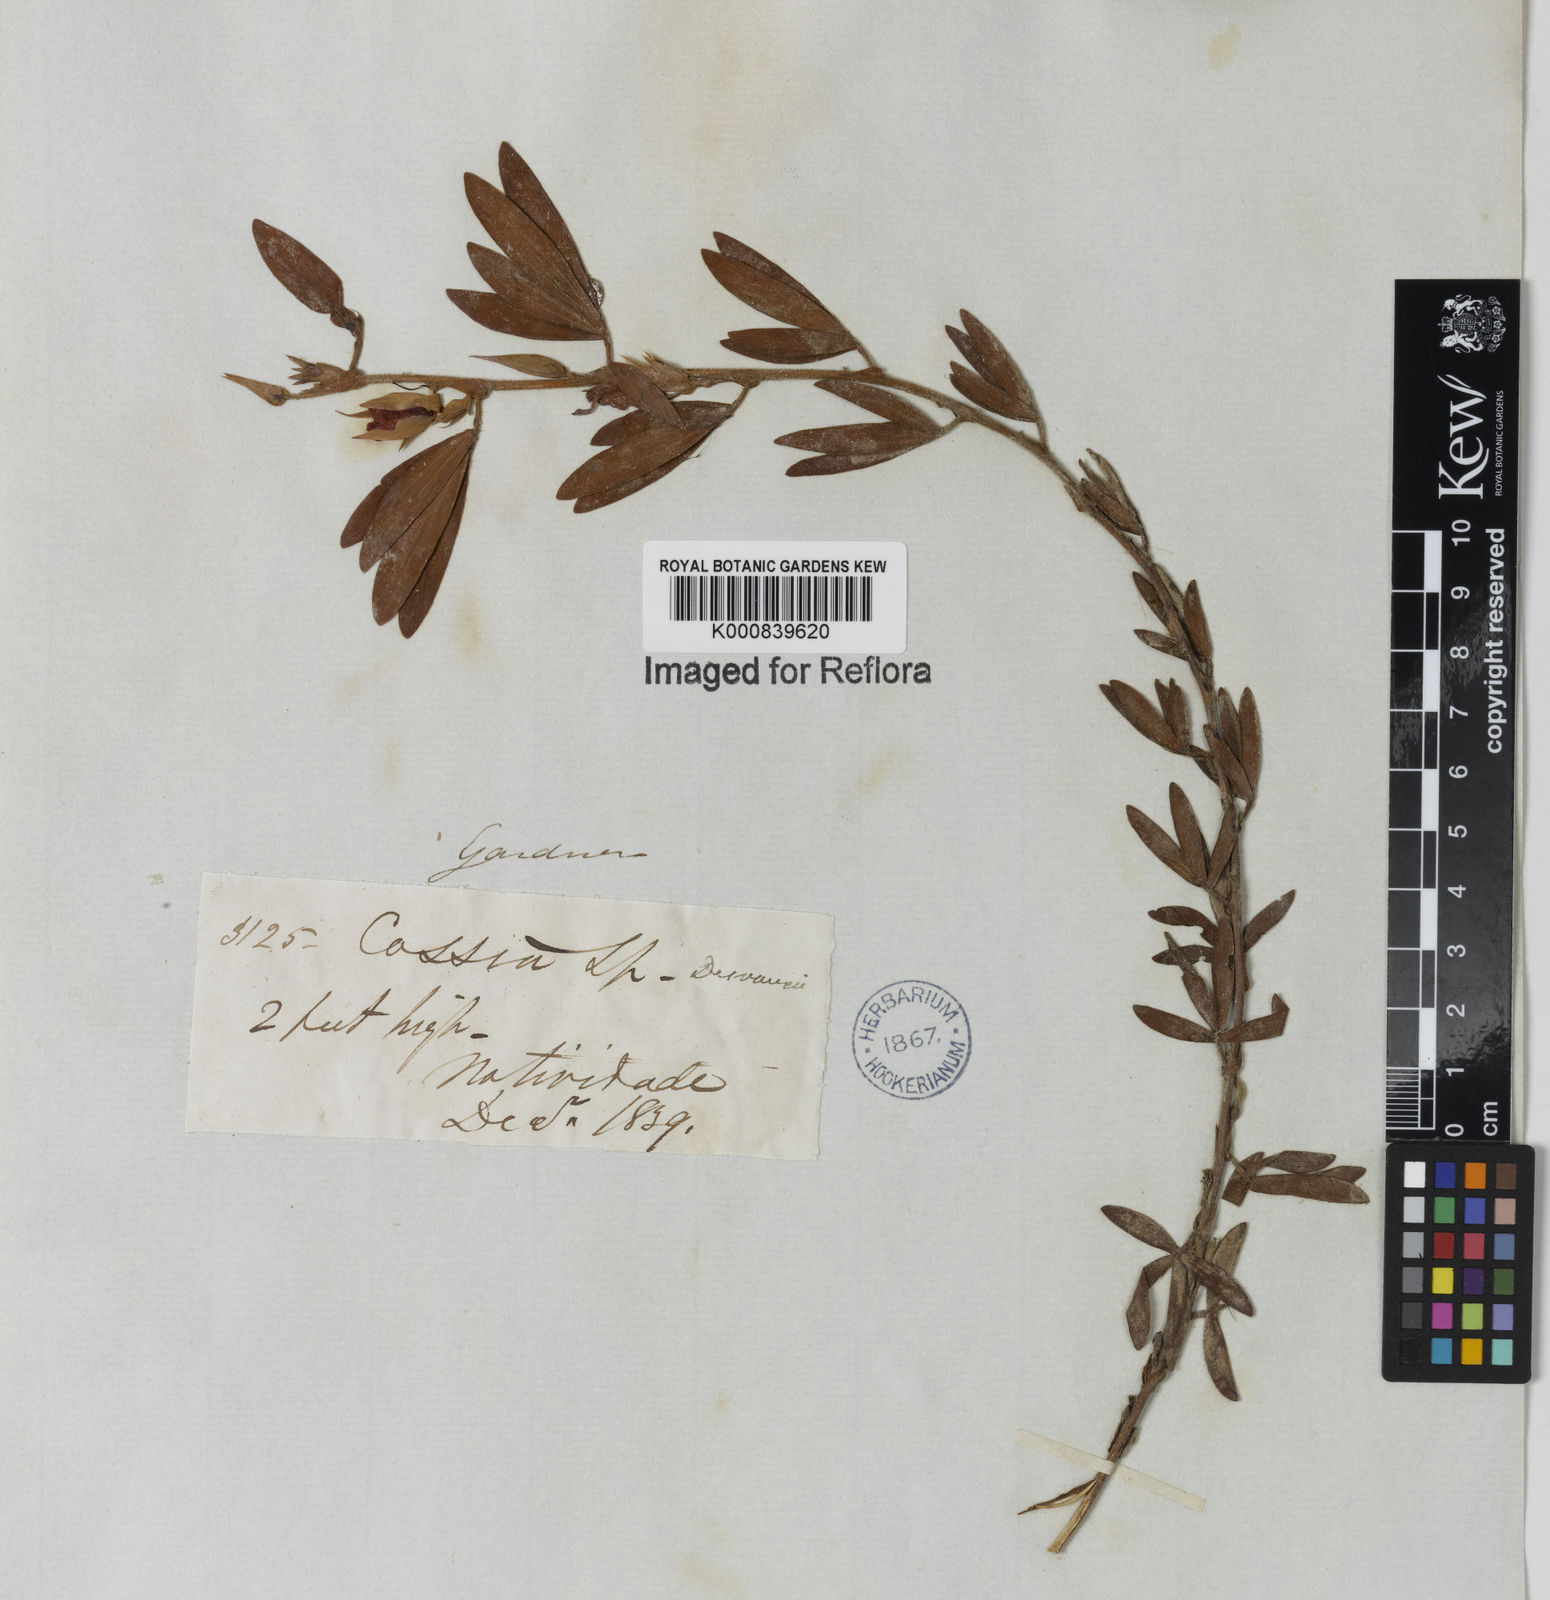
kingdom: Plantae
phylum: Tracheophyta
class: Magnoliopsida
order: Fabales
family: Fabaceae
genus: Chamaecrista
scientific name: Chamaecrista desvauxii
